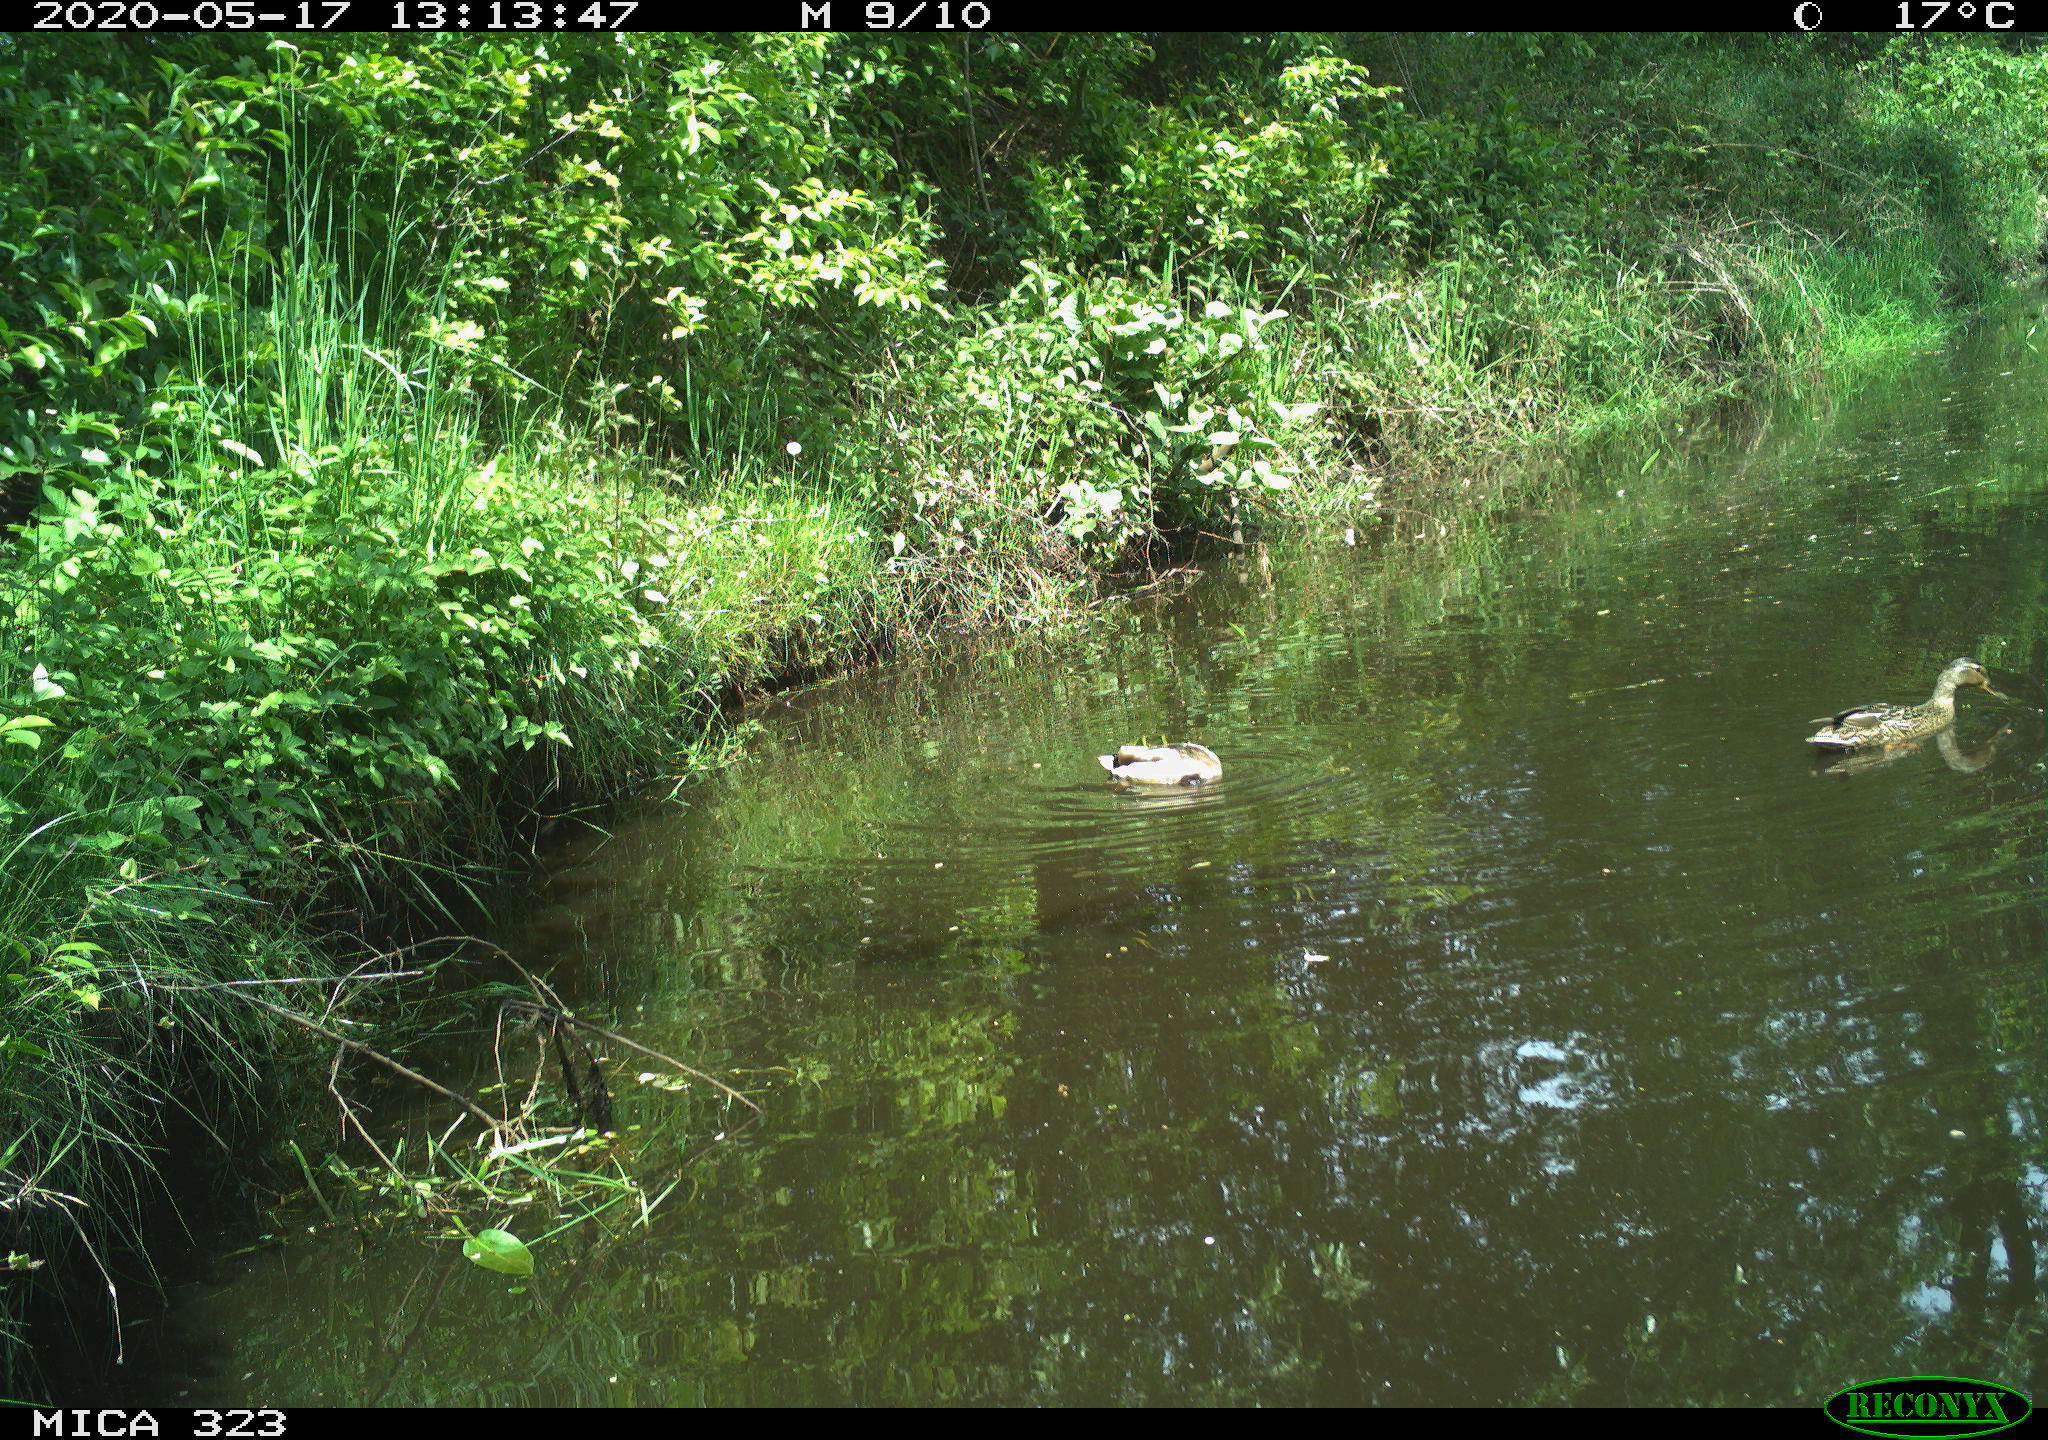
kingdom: Animalia
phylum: Chordata
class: Aves
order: Anseriformes
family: Anatidae
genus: Anas
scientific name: Anas platyrhynchos
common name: Mallard
